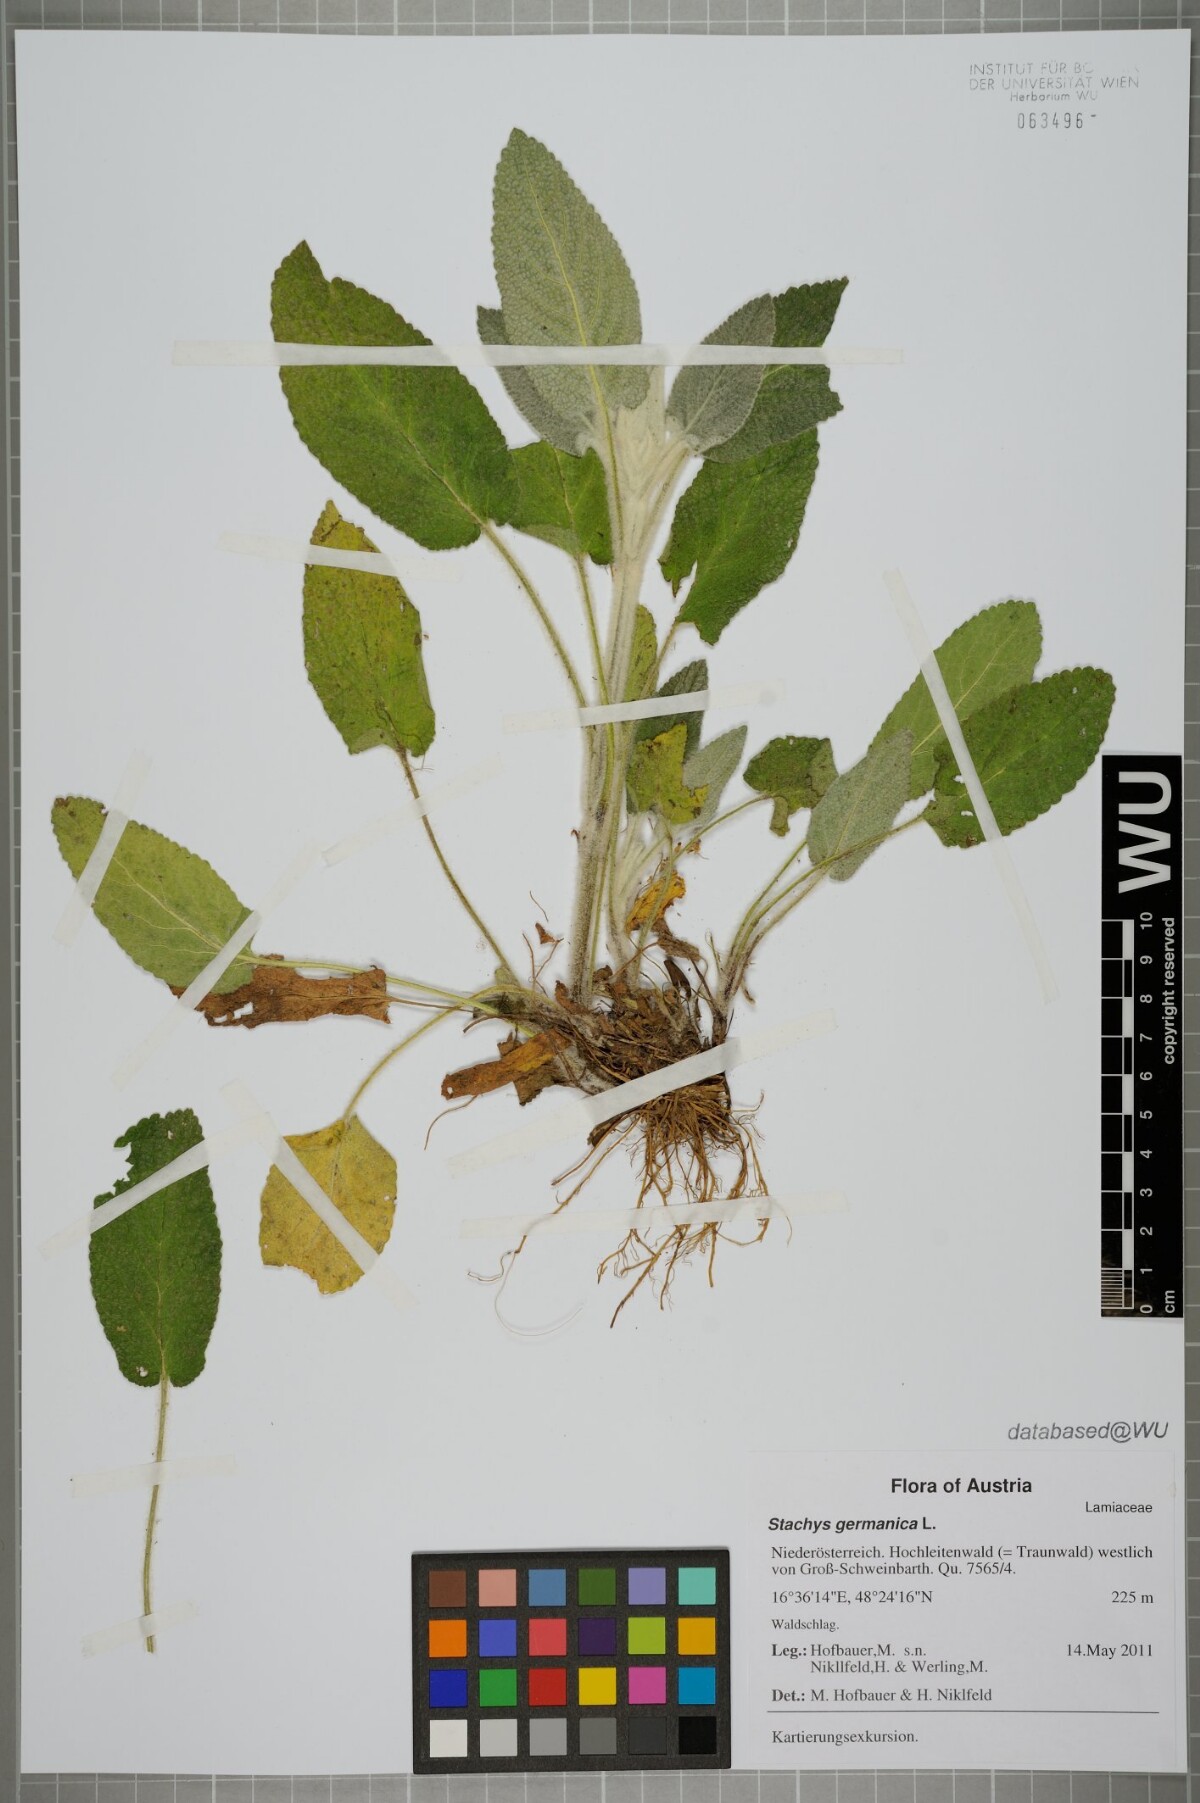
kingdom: Plantae
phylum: Tracheophyta
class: Magnoliopsida
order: Lamiales
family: Lamiaceae
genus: Stachys
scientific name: Stachys germanica
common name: Downy woundwort
